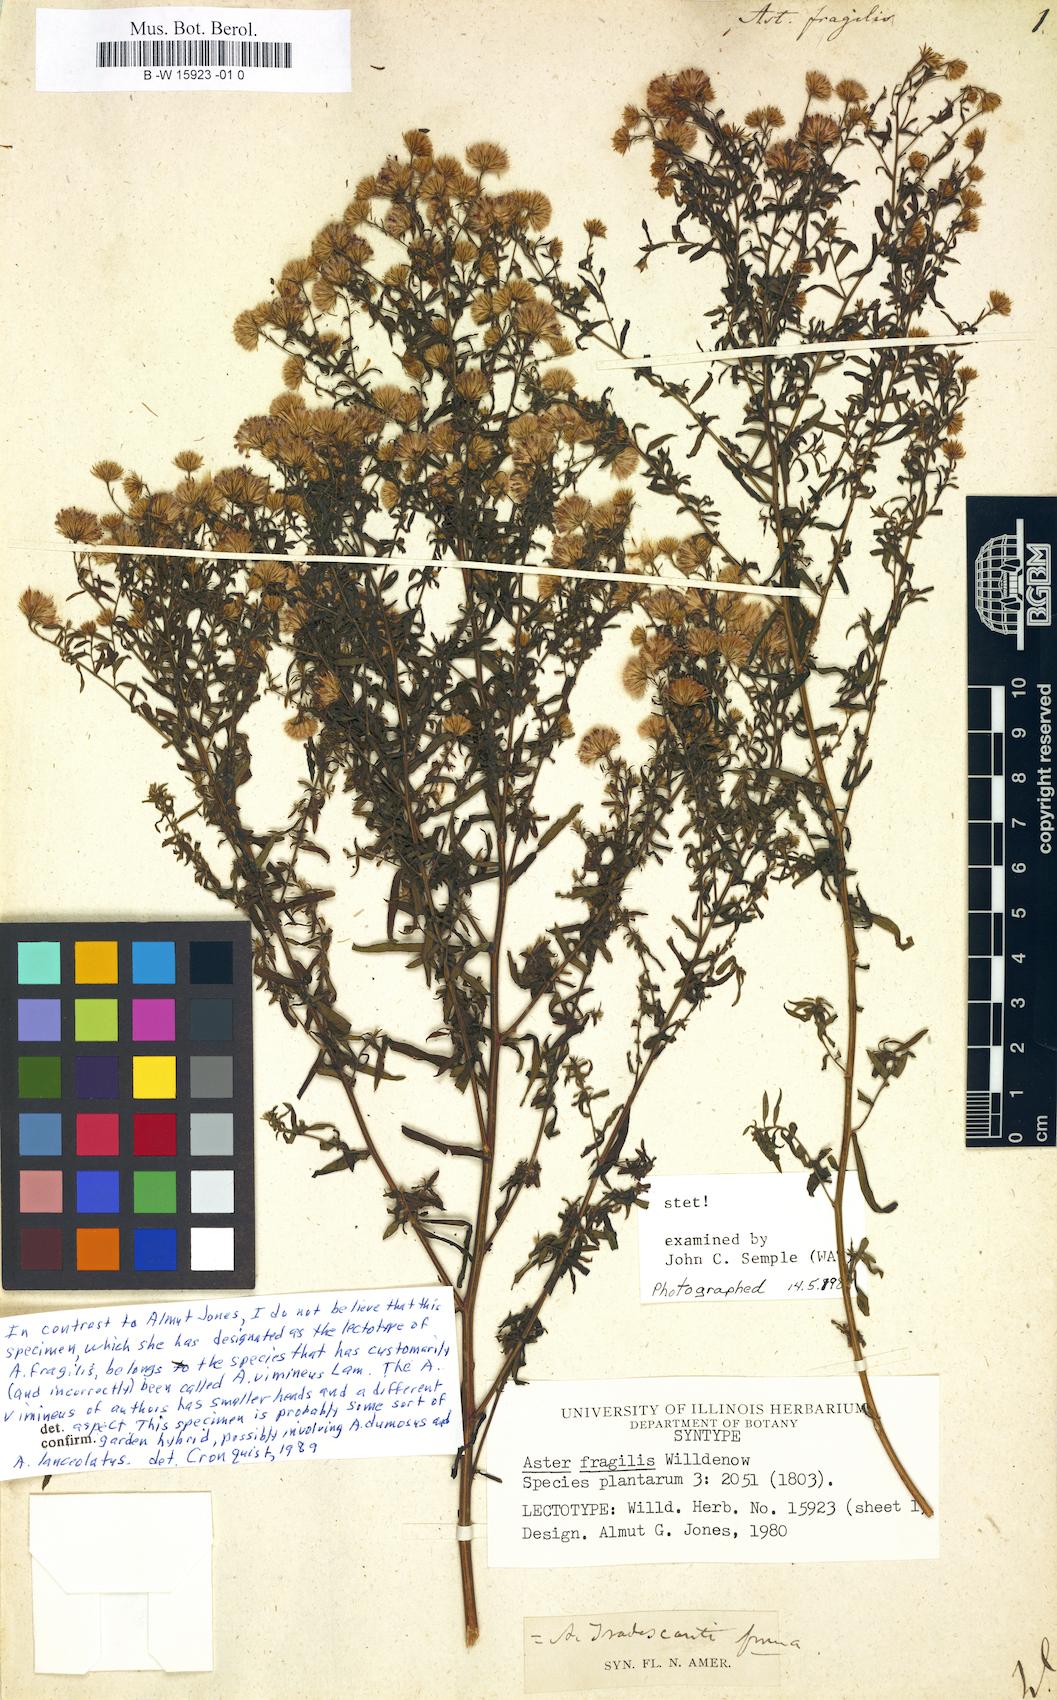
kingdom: Plantae
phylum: Tracheophyta
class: Magnoliopsida
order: Asterales
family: Asteraceae
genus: Aster
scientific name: Aster fragilis
